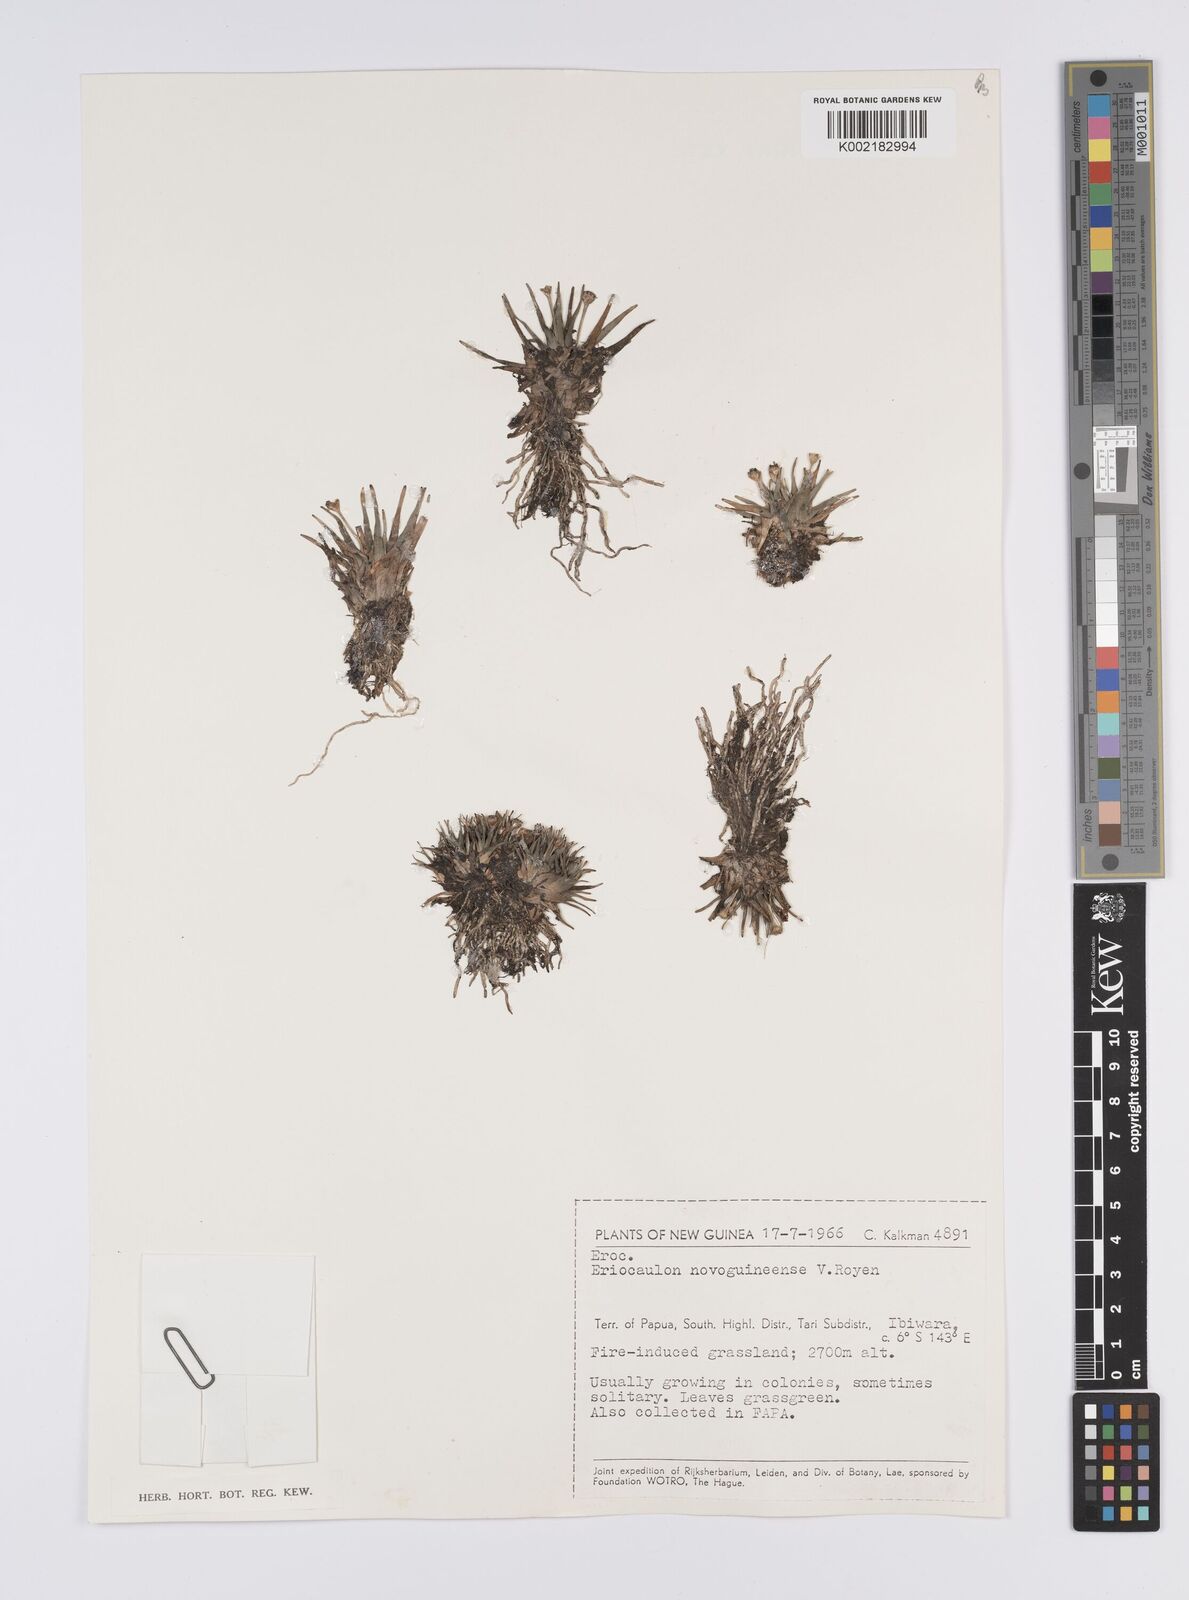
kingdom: Plantae
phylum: Tracheophyta
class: Liliopsida
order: Poales
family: Eriocaulaceae
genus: Eriocaulon
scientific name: Eriocaulon novoguineense
